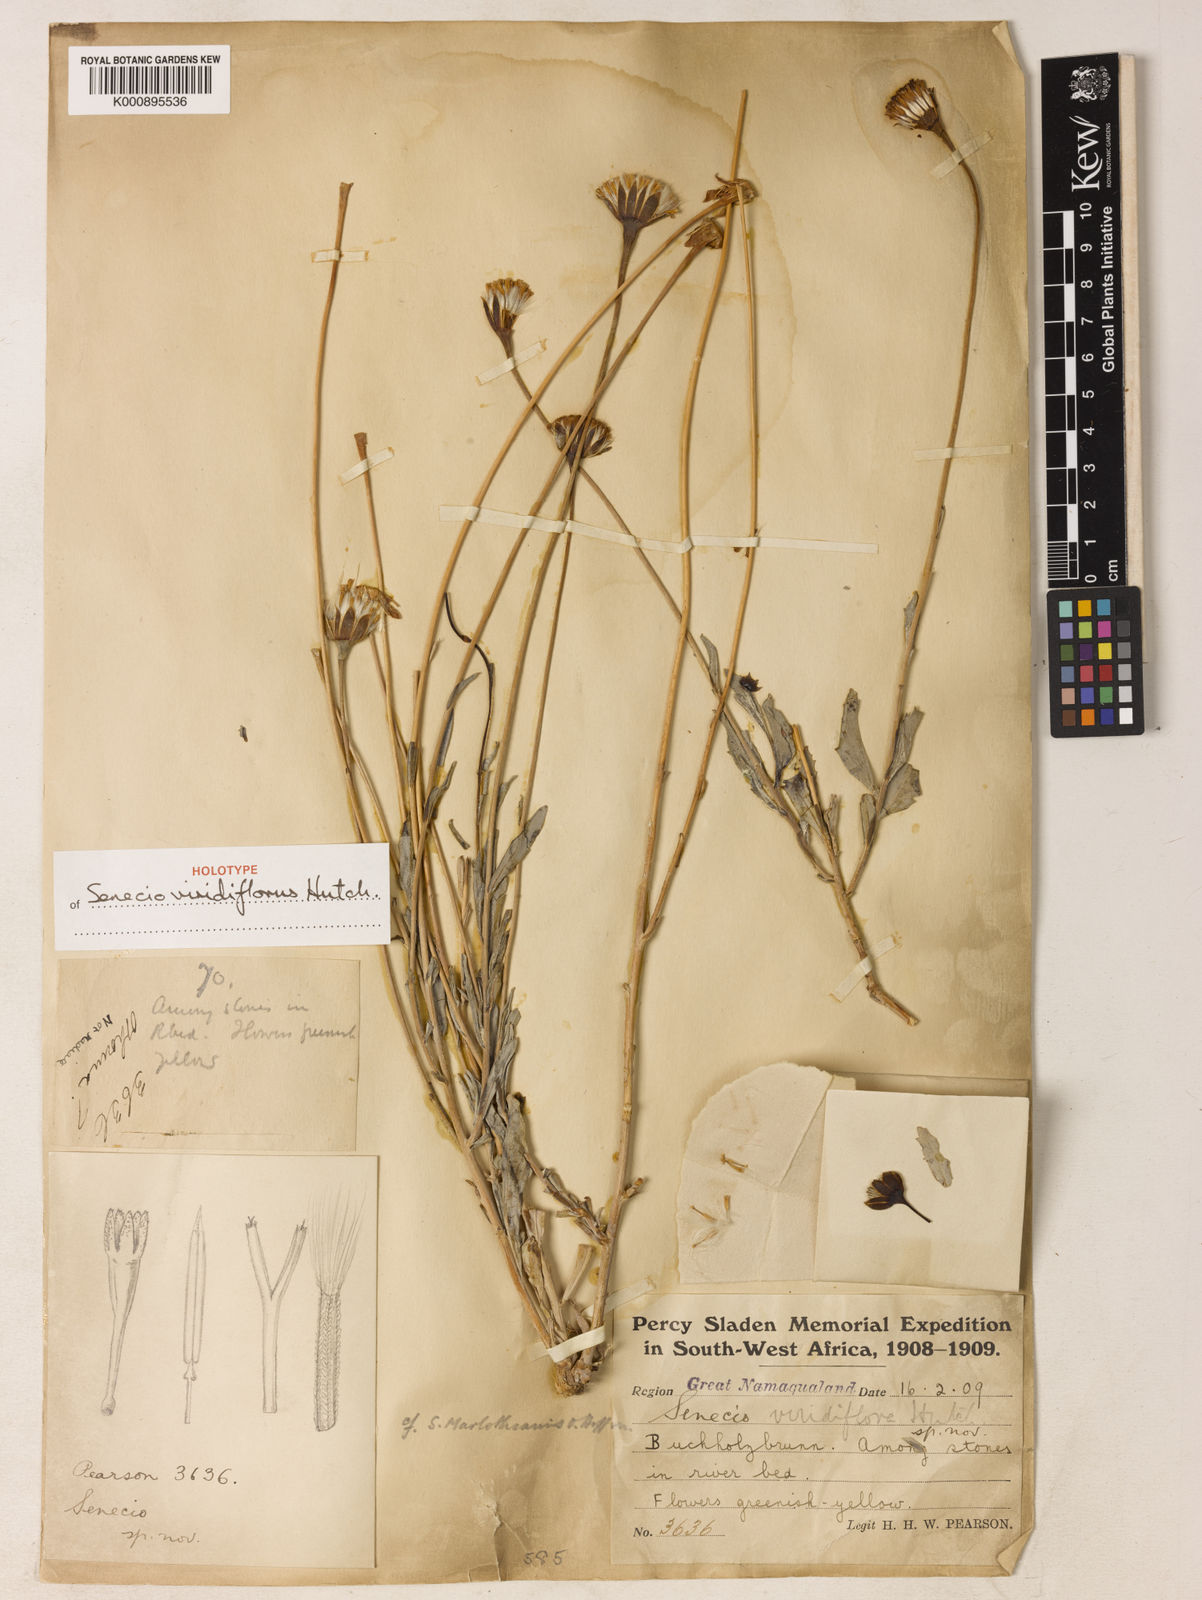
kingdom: Plantae
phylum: Tracheophyta
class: Magnoliopsida
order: Asterales
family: Asteraceae
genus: Emilia
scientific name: Emilia marlothiana
